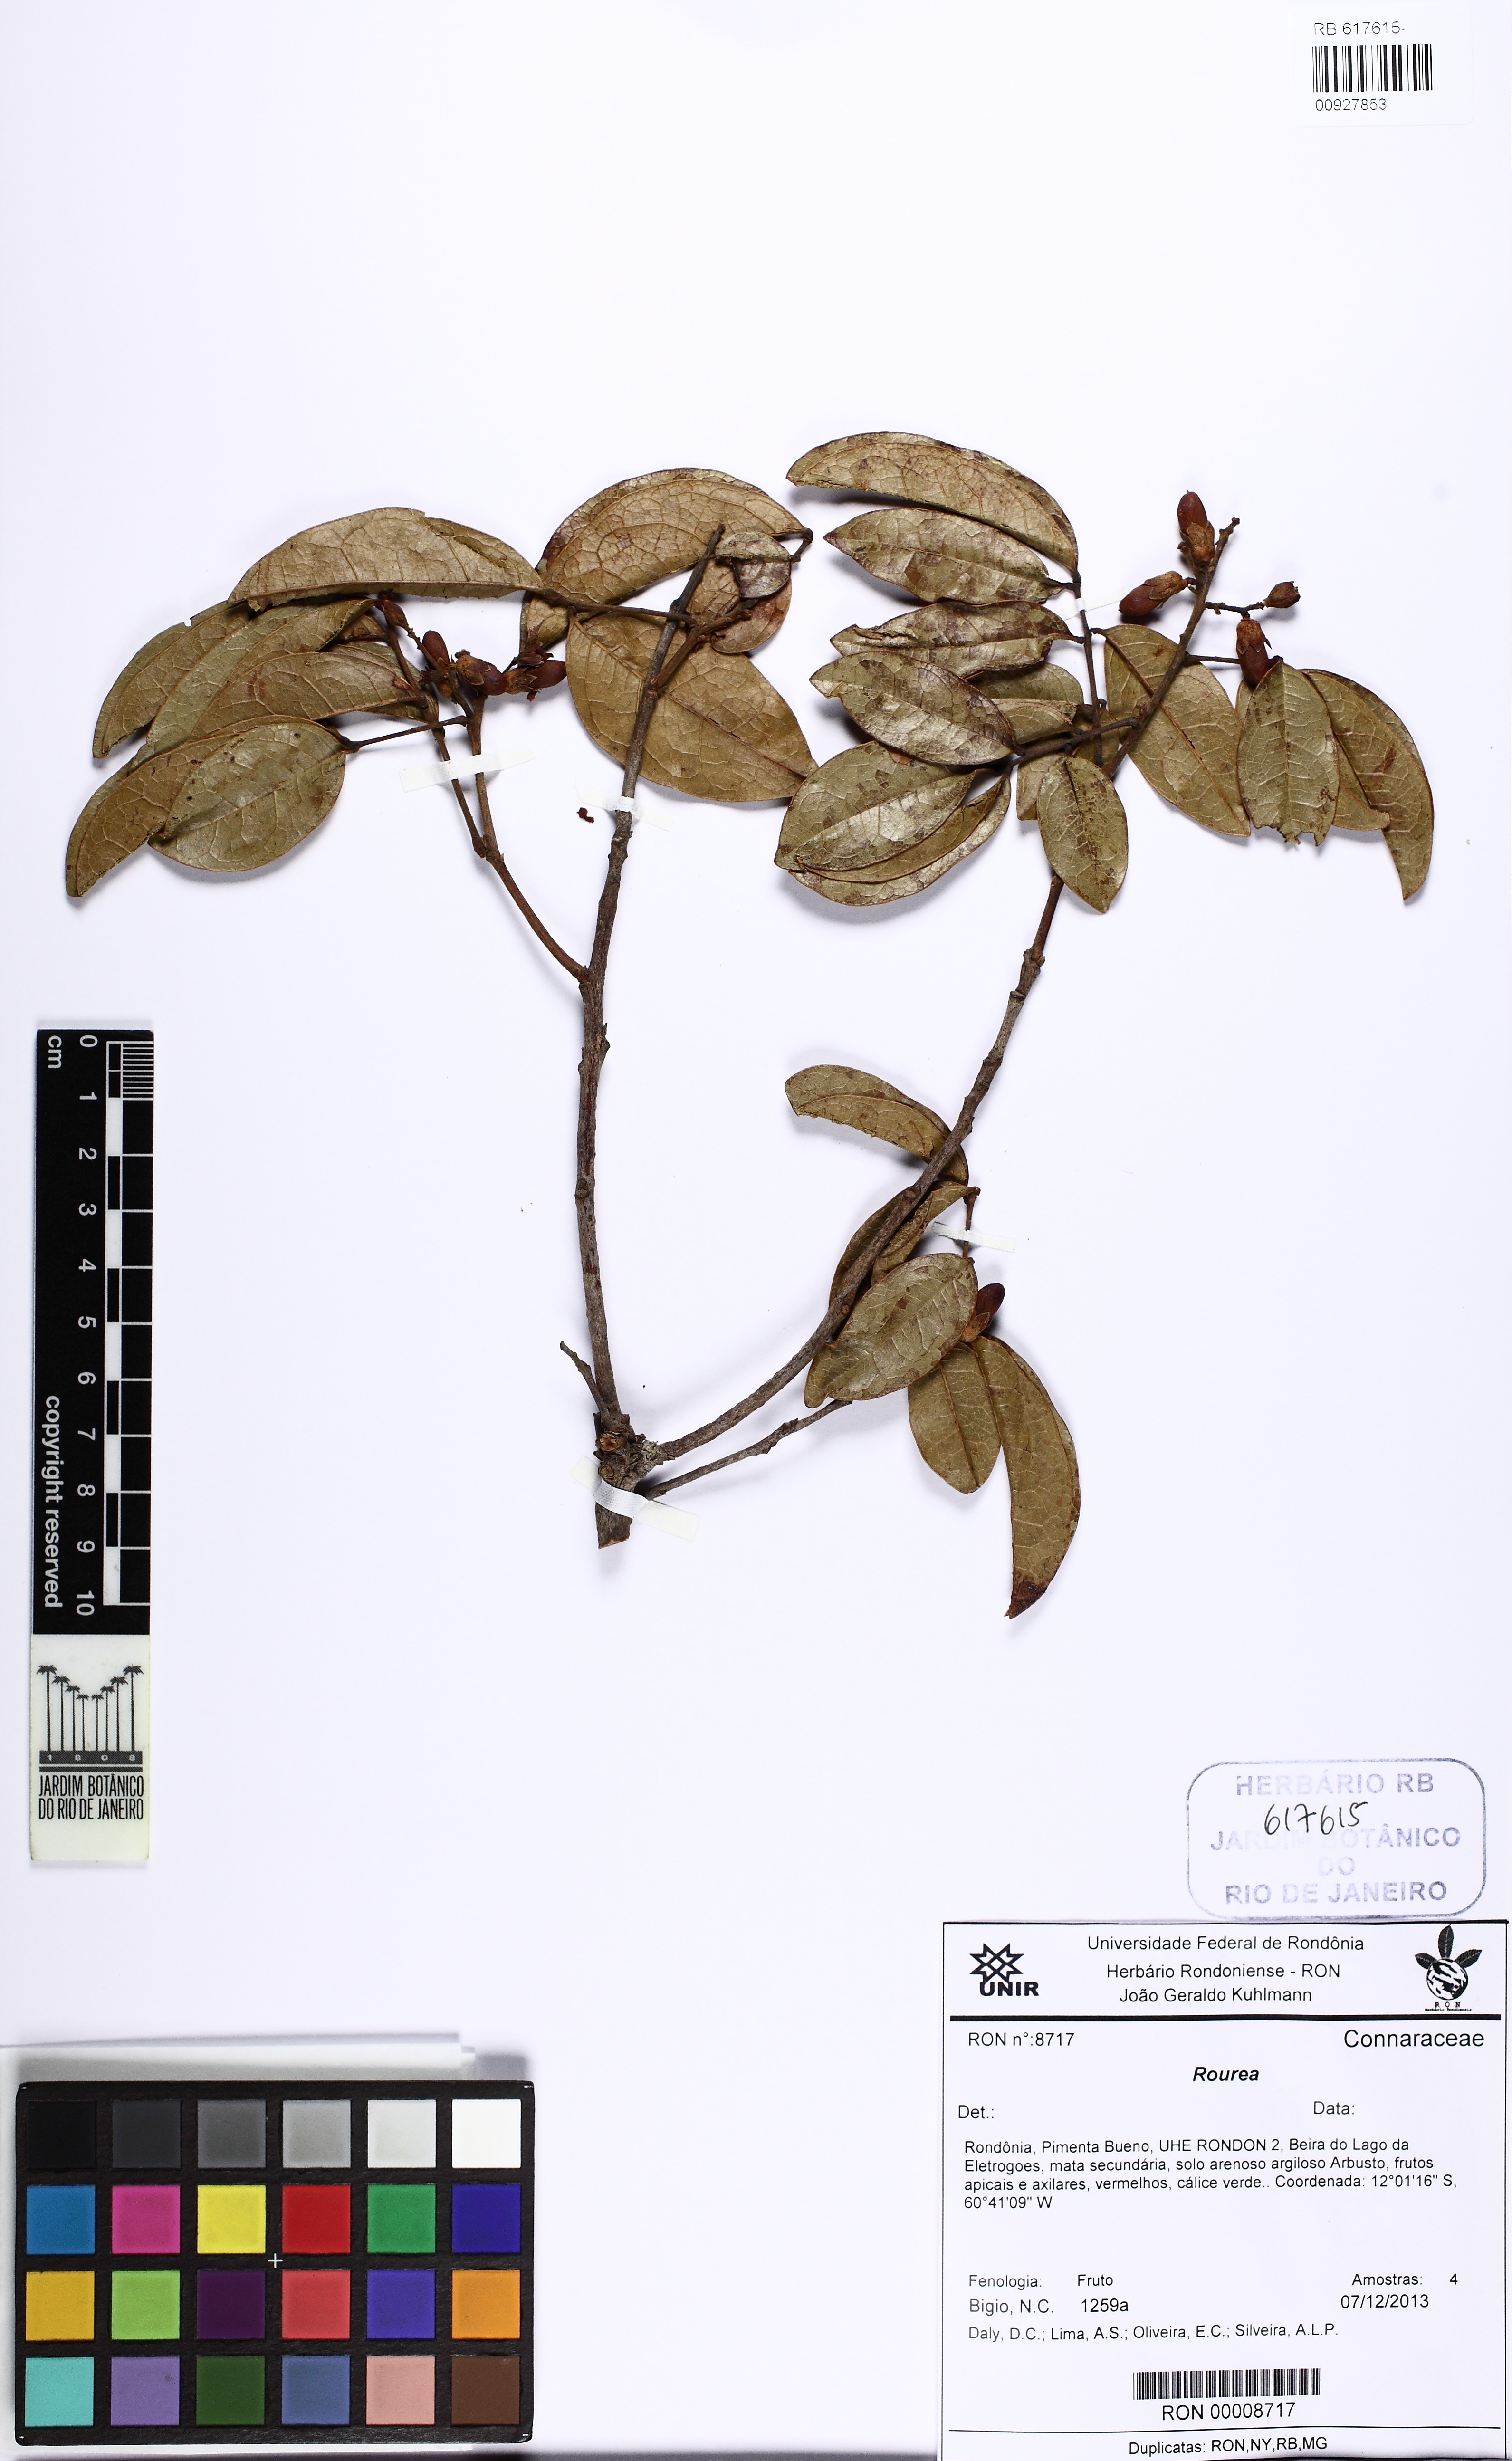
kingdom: Plantae
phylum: Tracheophyta
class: Magnoliopsida
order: Oxalidales
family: Connaraceae
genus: Rourea
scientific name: Rourea
